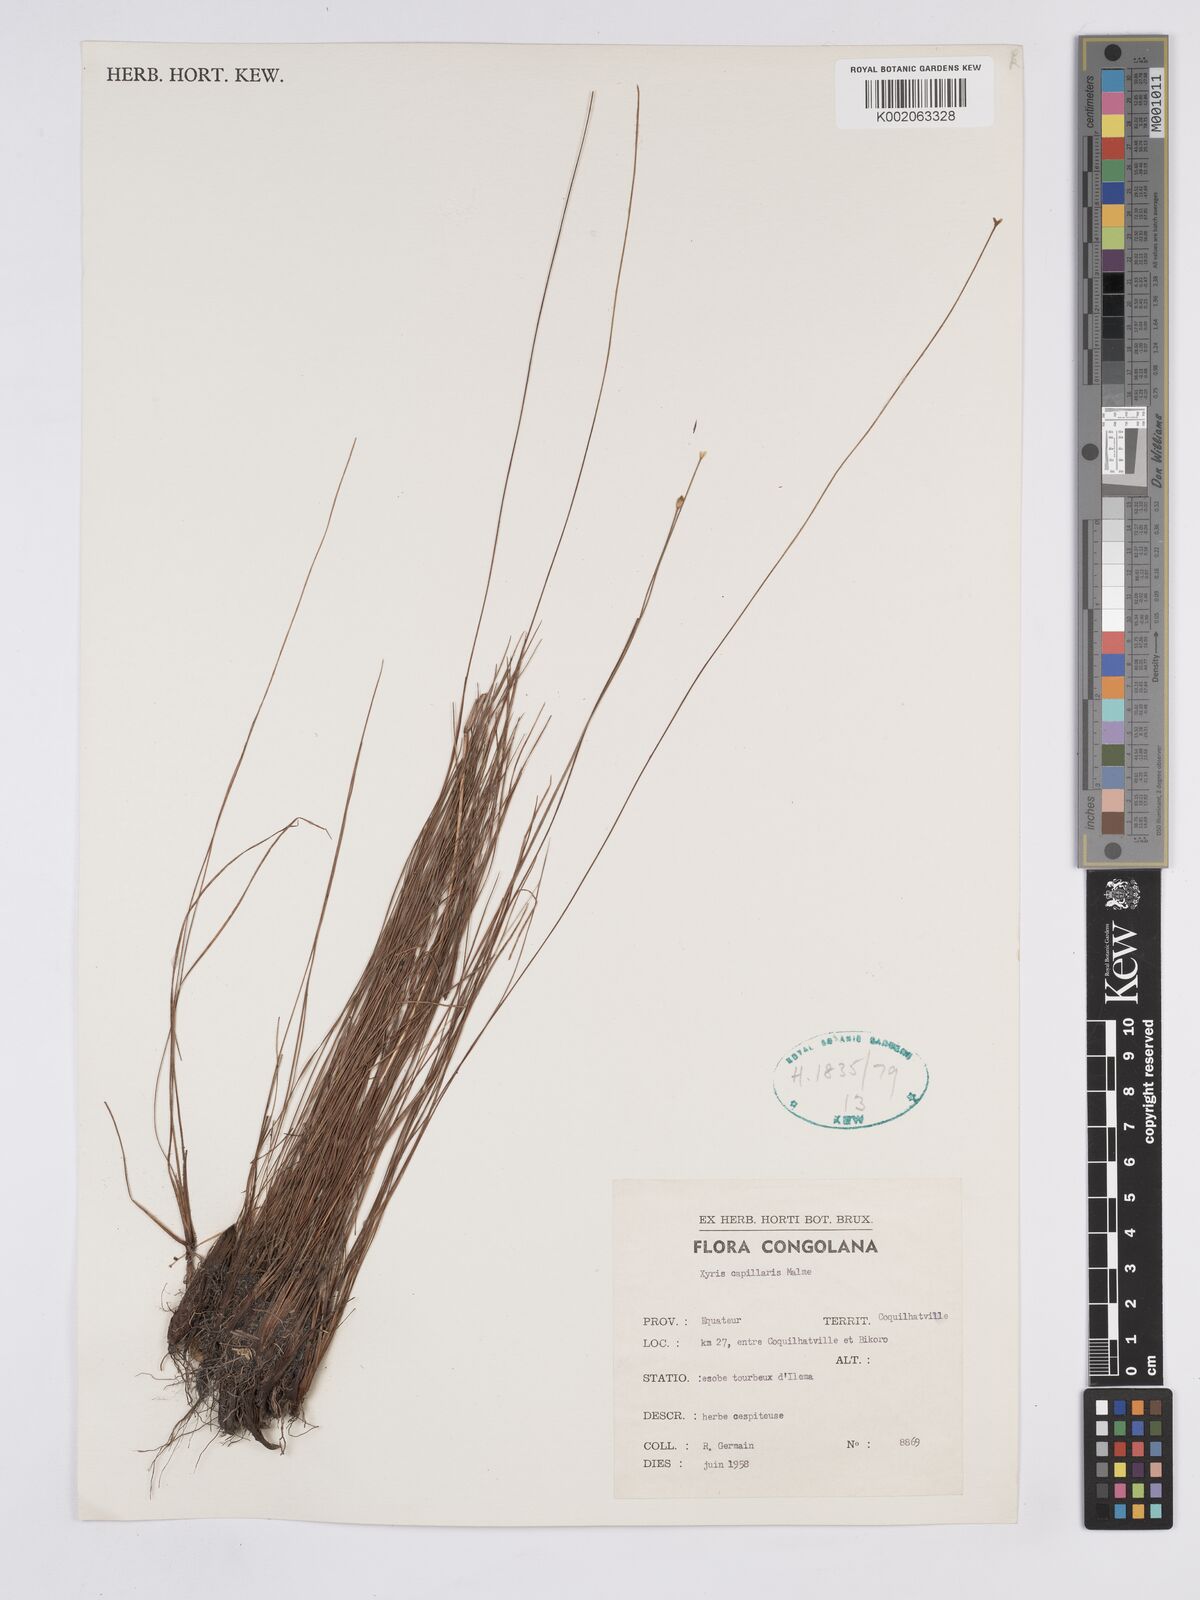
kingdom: Plantae
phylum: Tracheophyta
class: Liliopsida
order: Poales
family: Xyridaceae
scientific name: Xyridaceae
